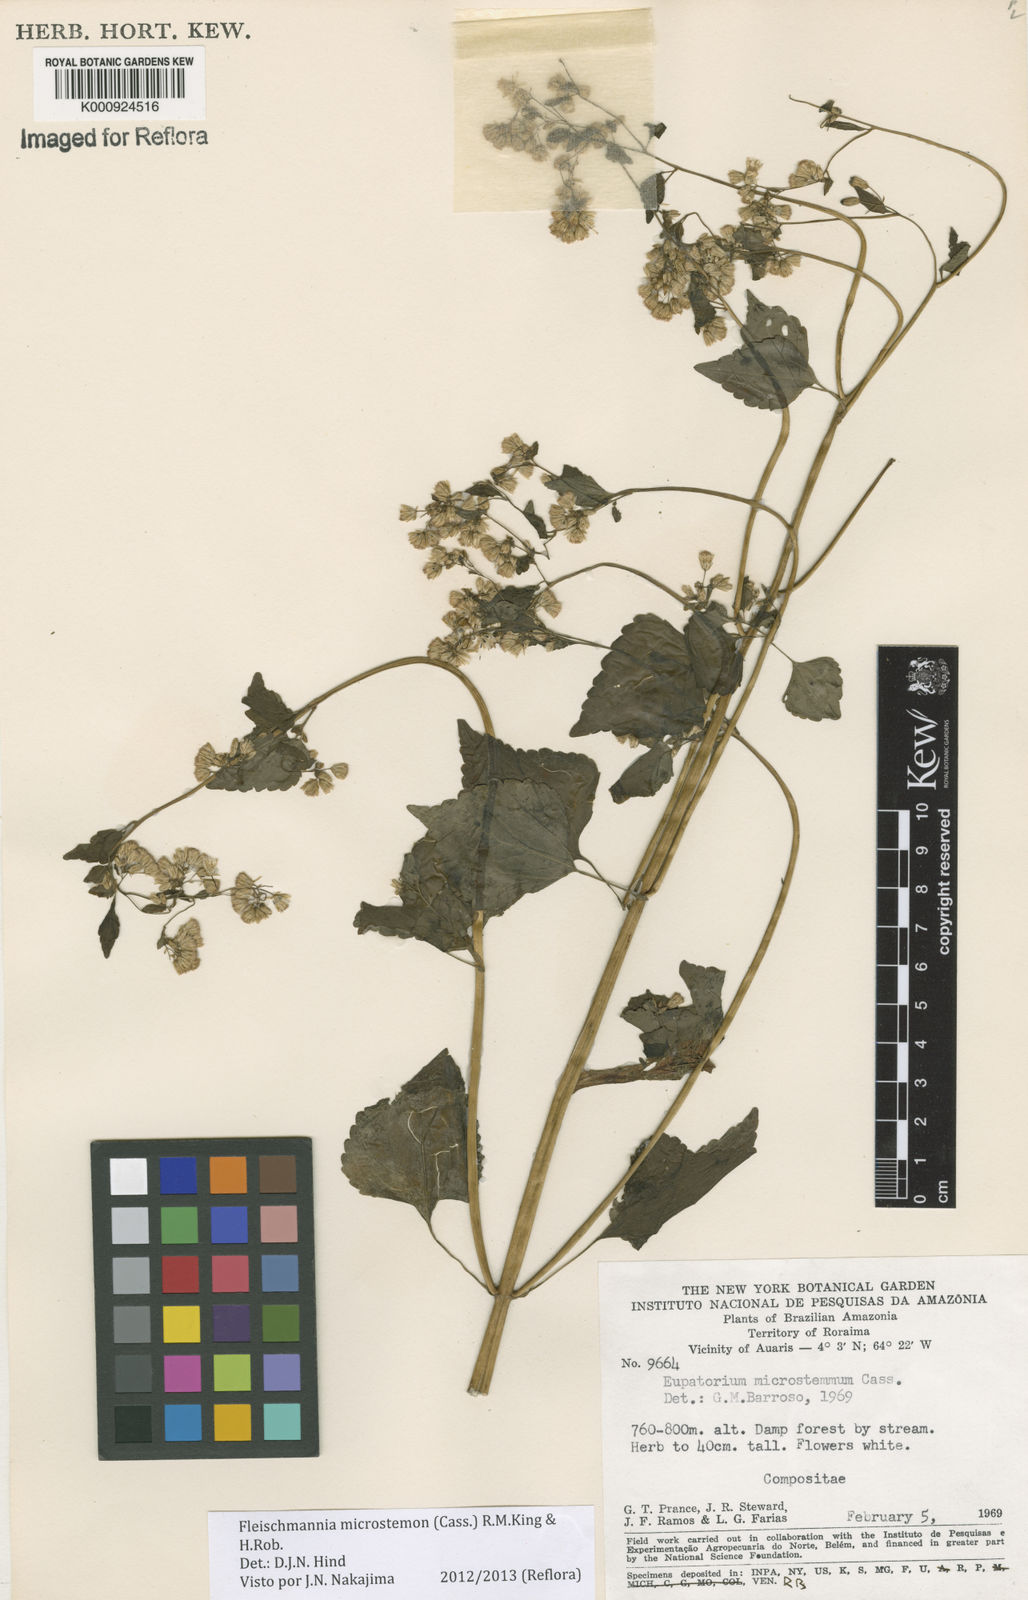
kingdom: Plantae
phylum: Tracheophyta
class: Magnoliopsida
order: Asterales
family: Asteraceae
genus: Fleischmannia
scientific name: Fleischmannia microstemon
